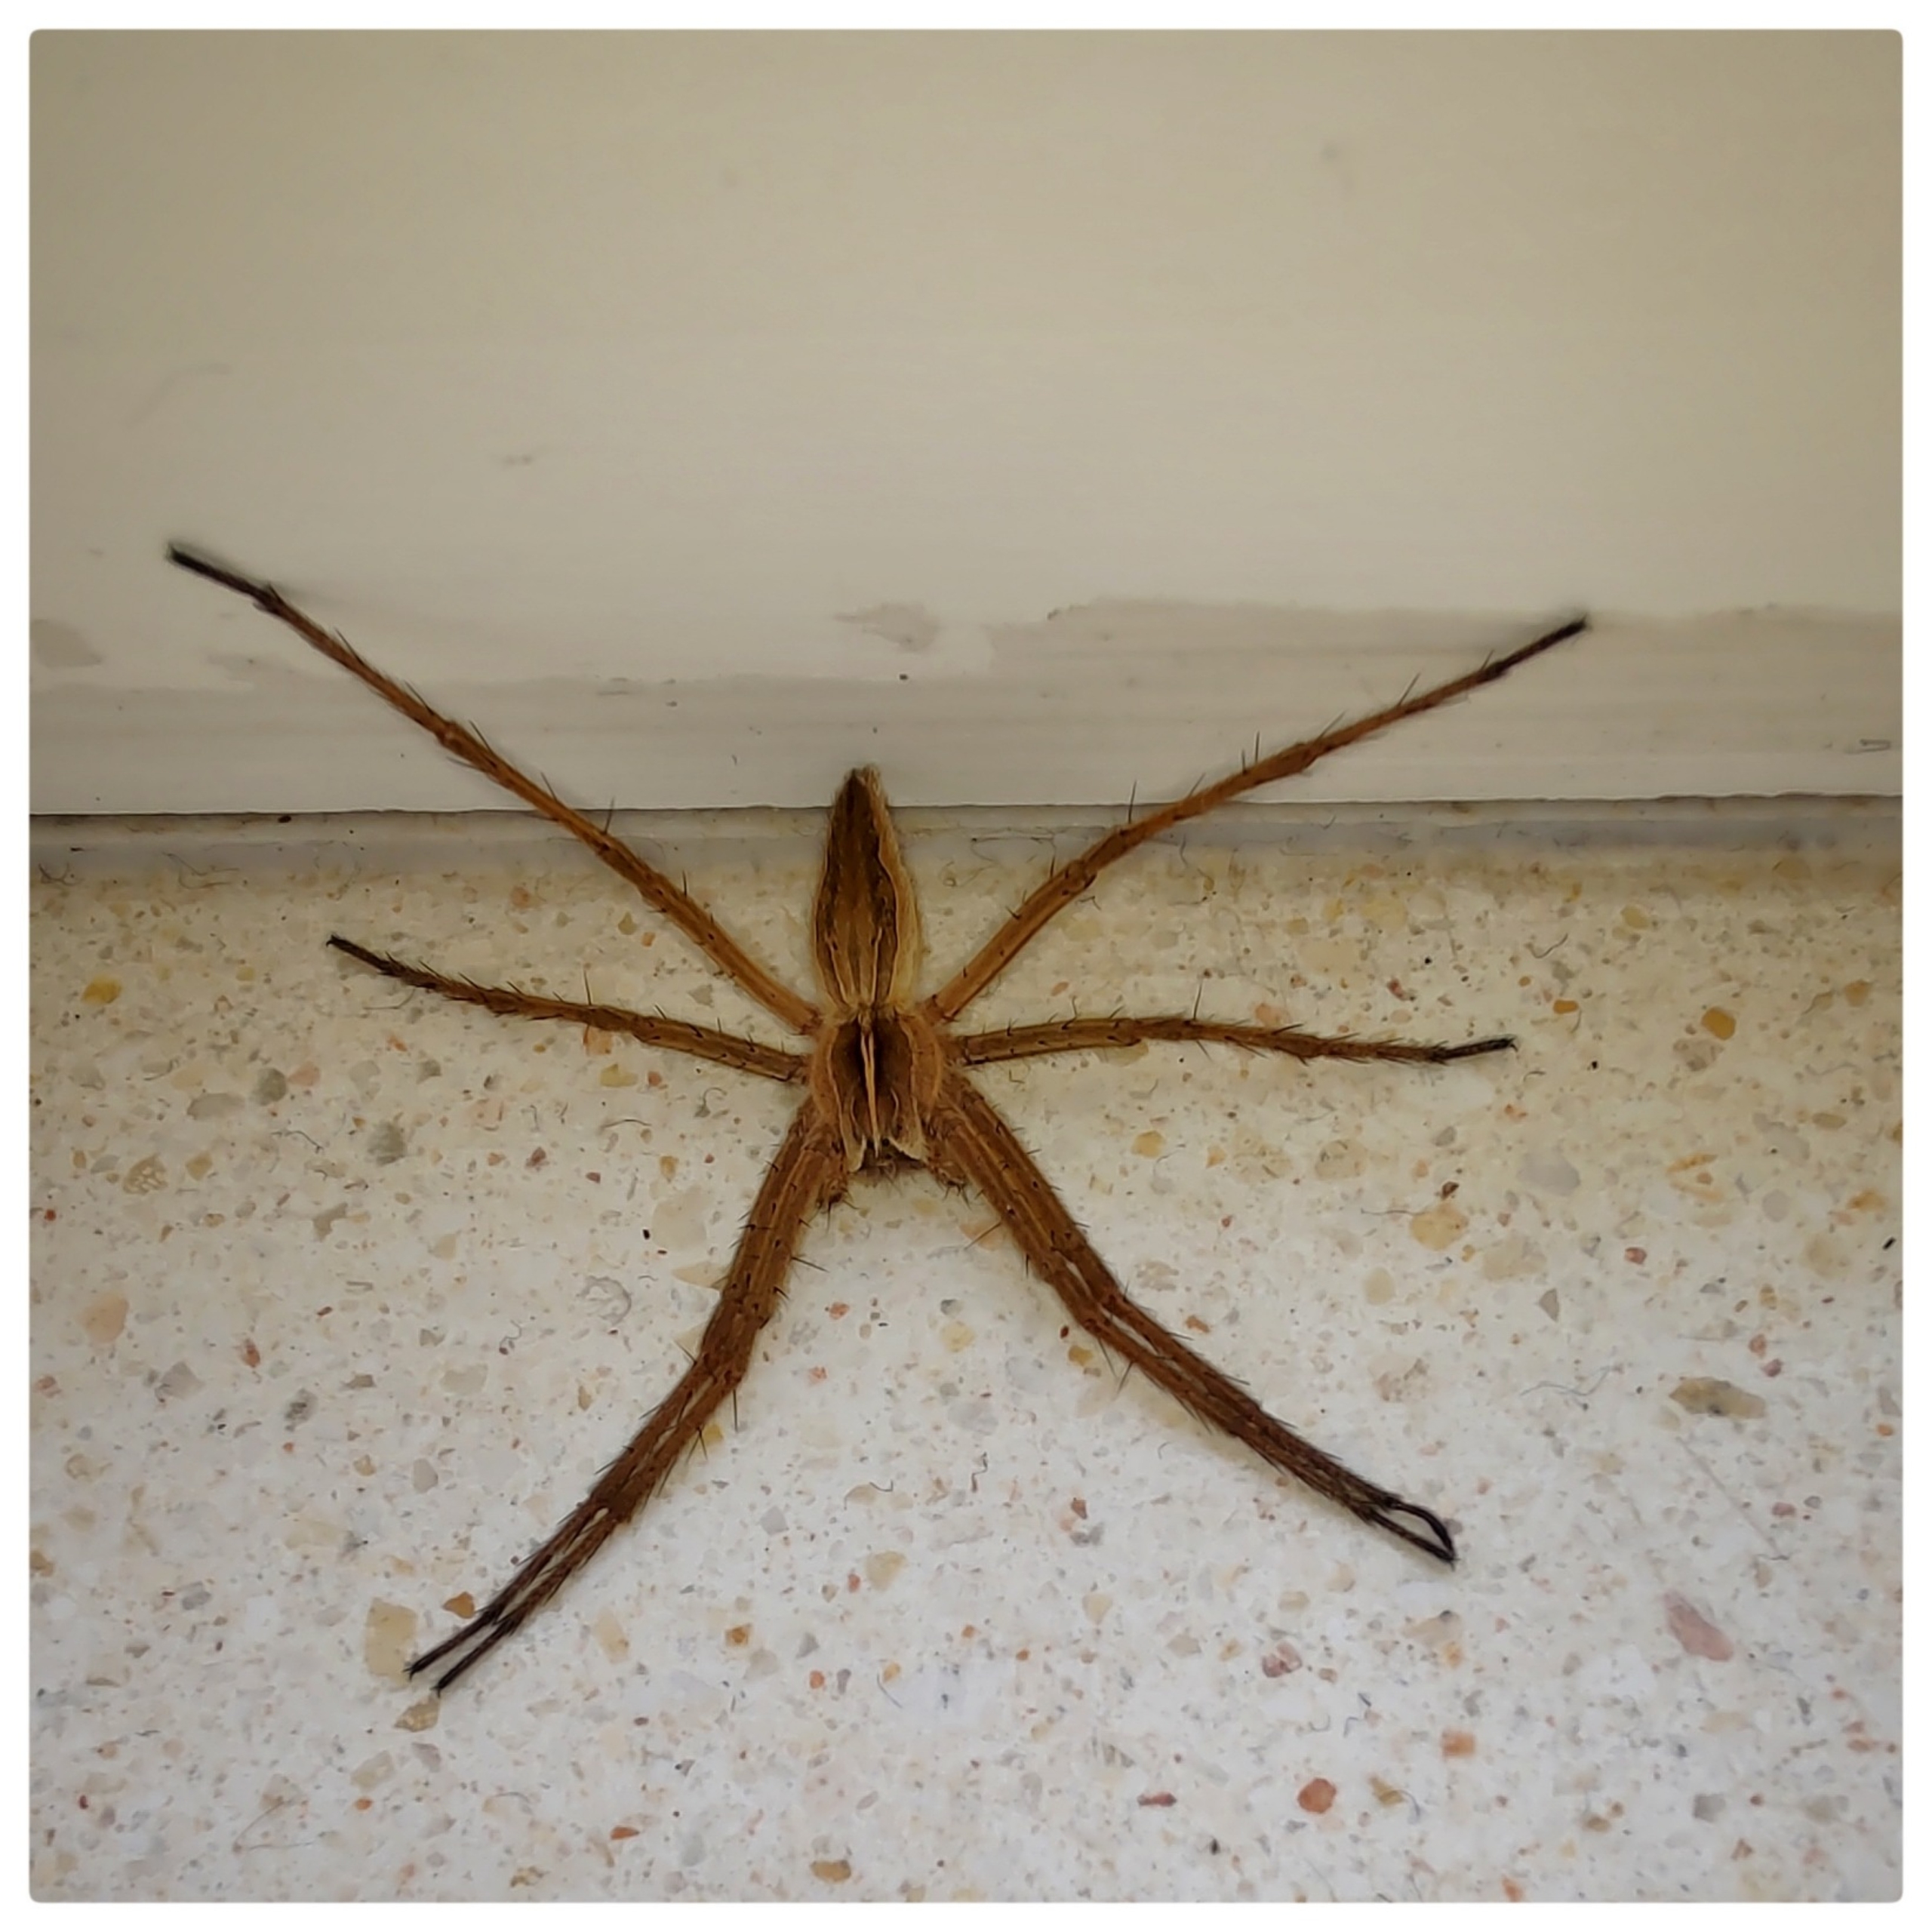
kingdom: Animalia
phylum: Arthropoda
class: Arachnida
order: Araneae
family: Pisauridae
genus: Pisaura
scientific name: Pisaura mirabilis
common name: Almindelig rovedderkop
